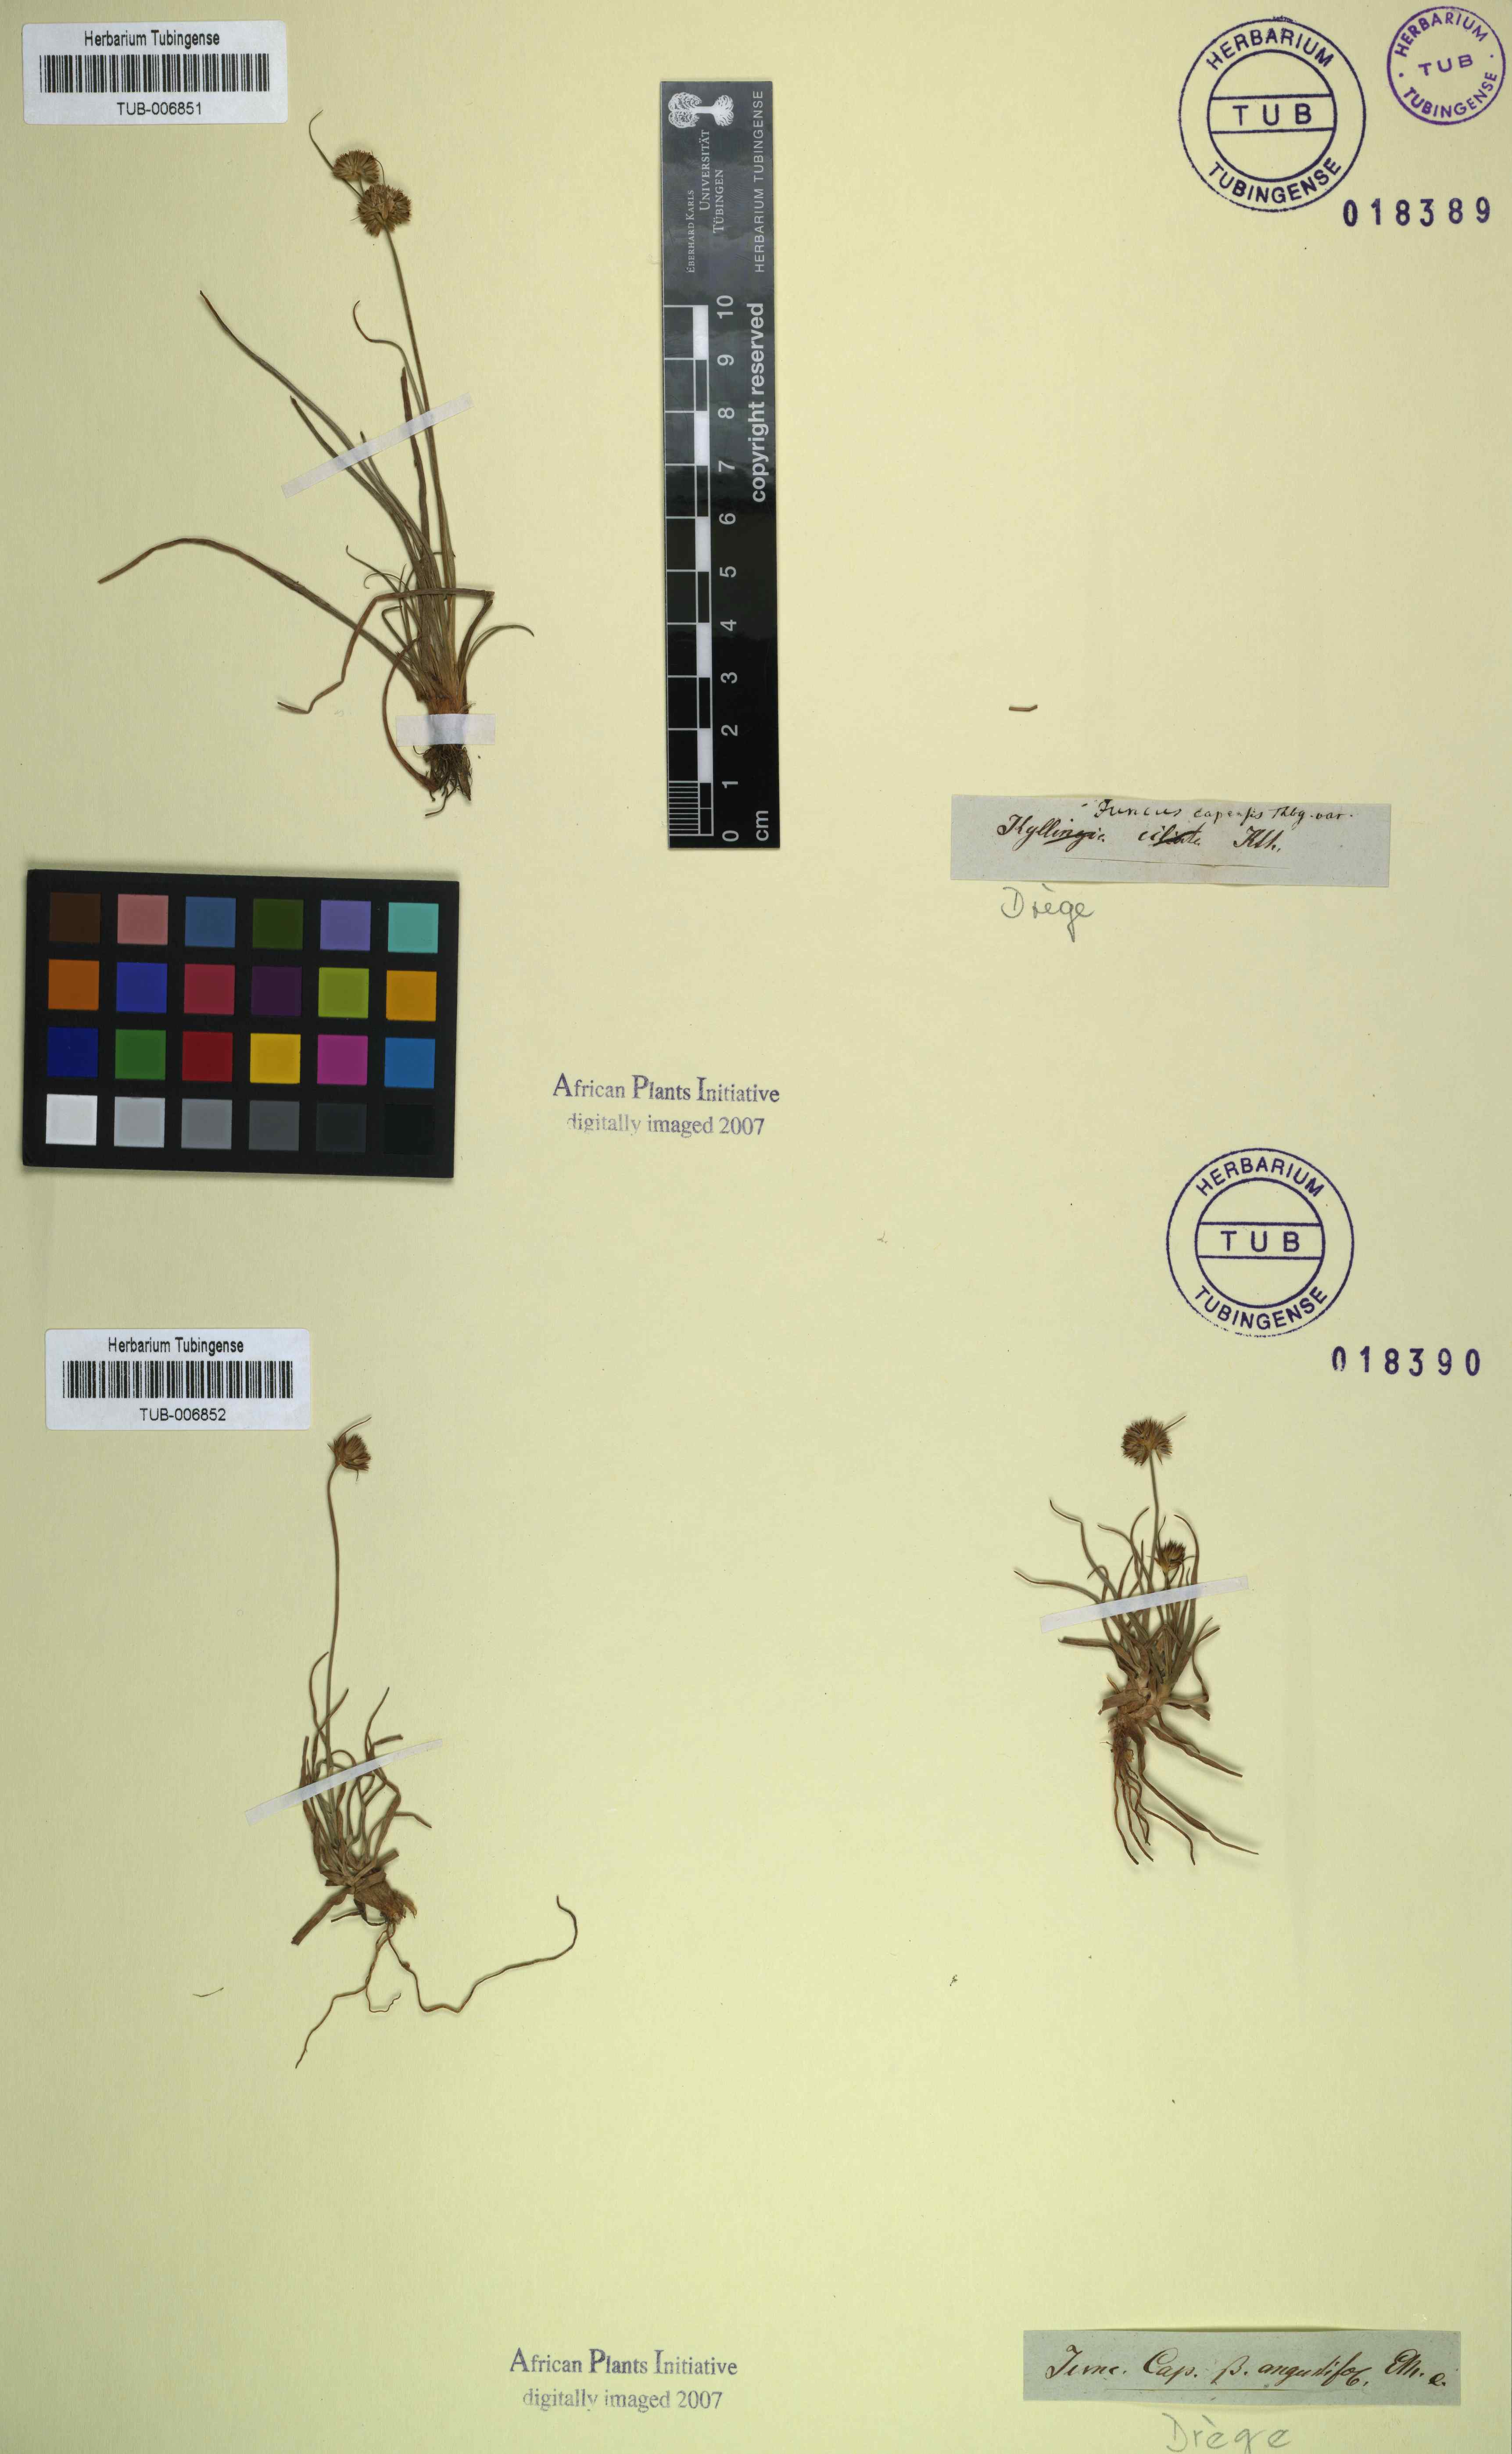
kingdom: Plantae
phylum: Tracheophyta
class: Liliopsida
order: Poales
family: Juncaceae
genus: Juncus
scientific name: Juncus capensis
